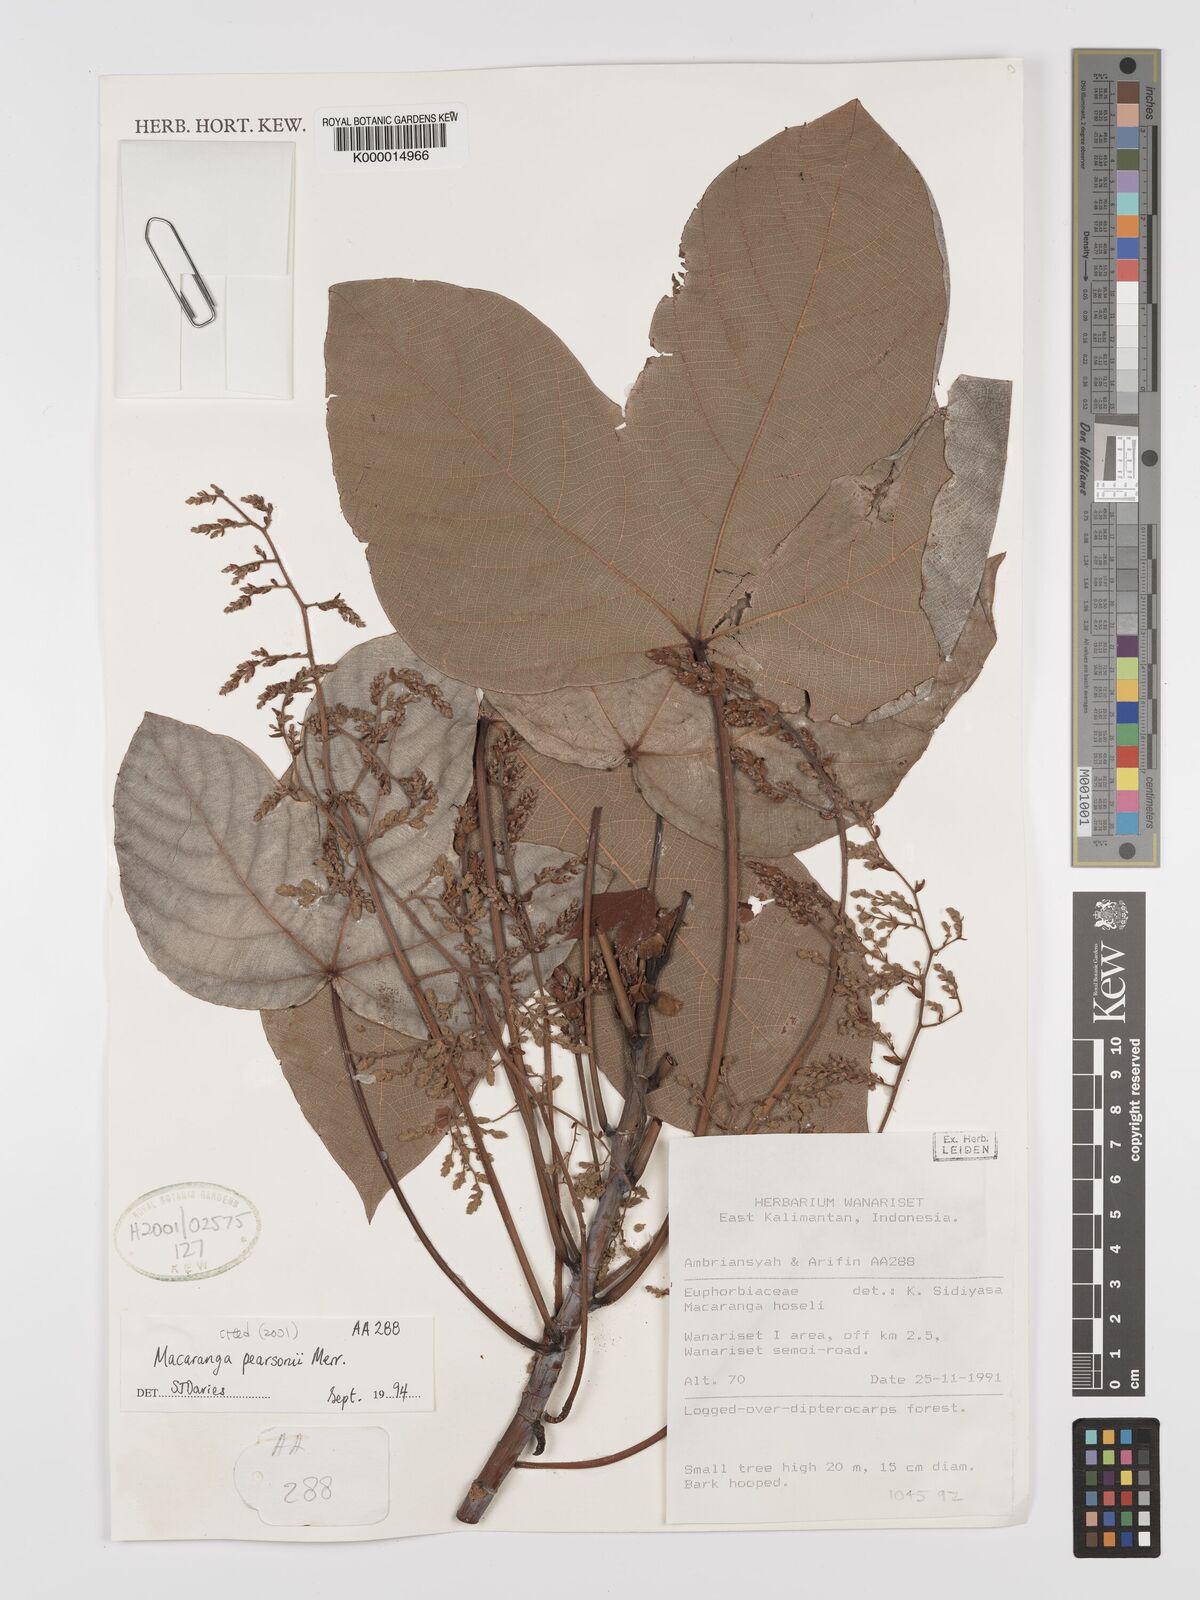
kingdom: Plantae
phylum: Tracheophyta
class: Magnoliopsida
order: Malpighiales
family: Euphorbiaceae
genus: Macaranga
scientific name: Macaranga pearsonii
